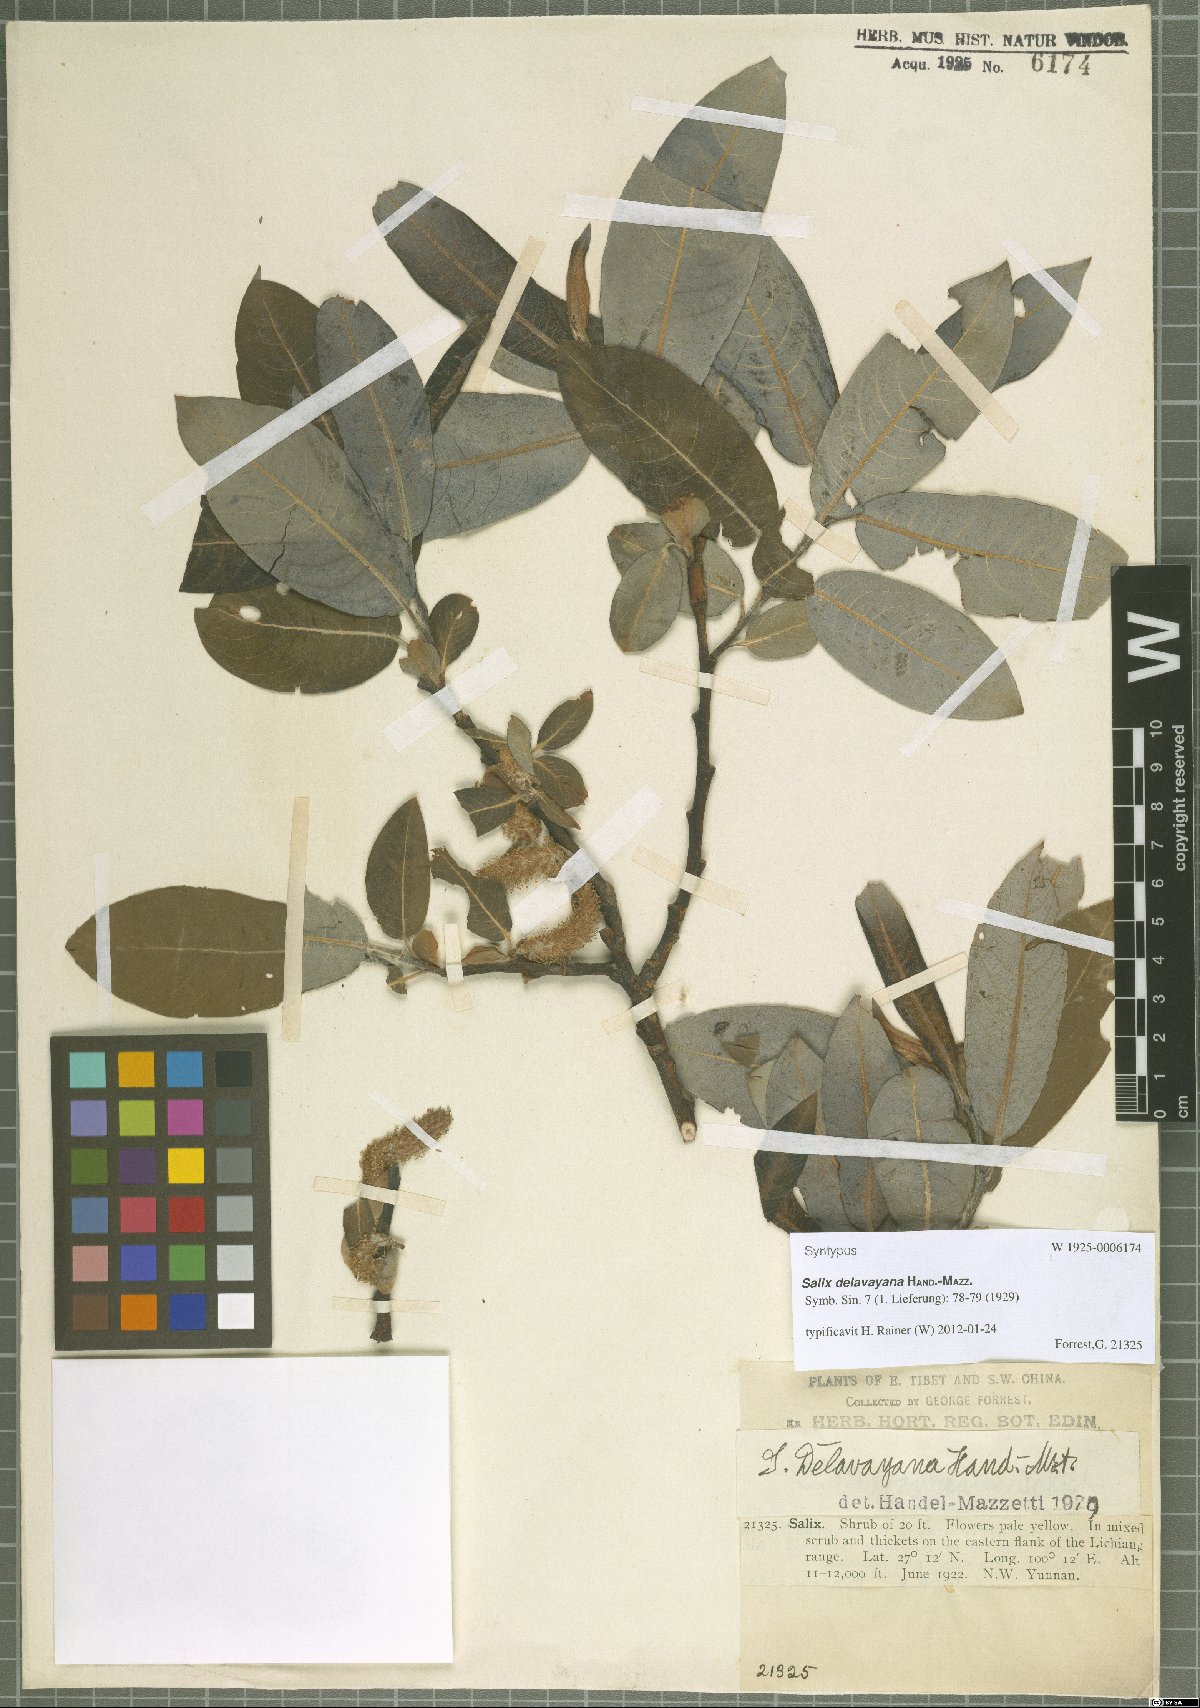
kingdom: Plantae
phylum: Tracheophyta
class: Magnoliopsida
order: Malpighiales
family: Salicaceae
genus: Salix
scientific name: Salix delavayana
